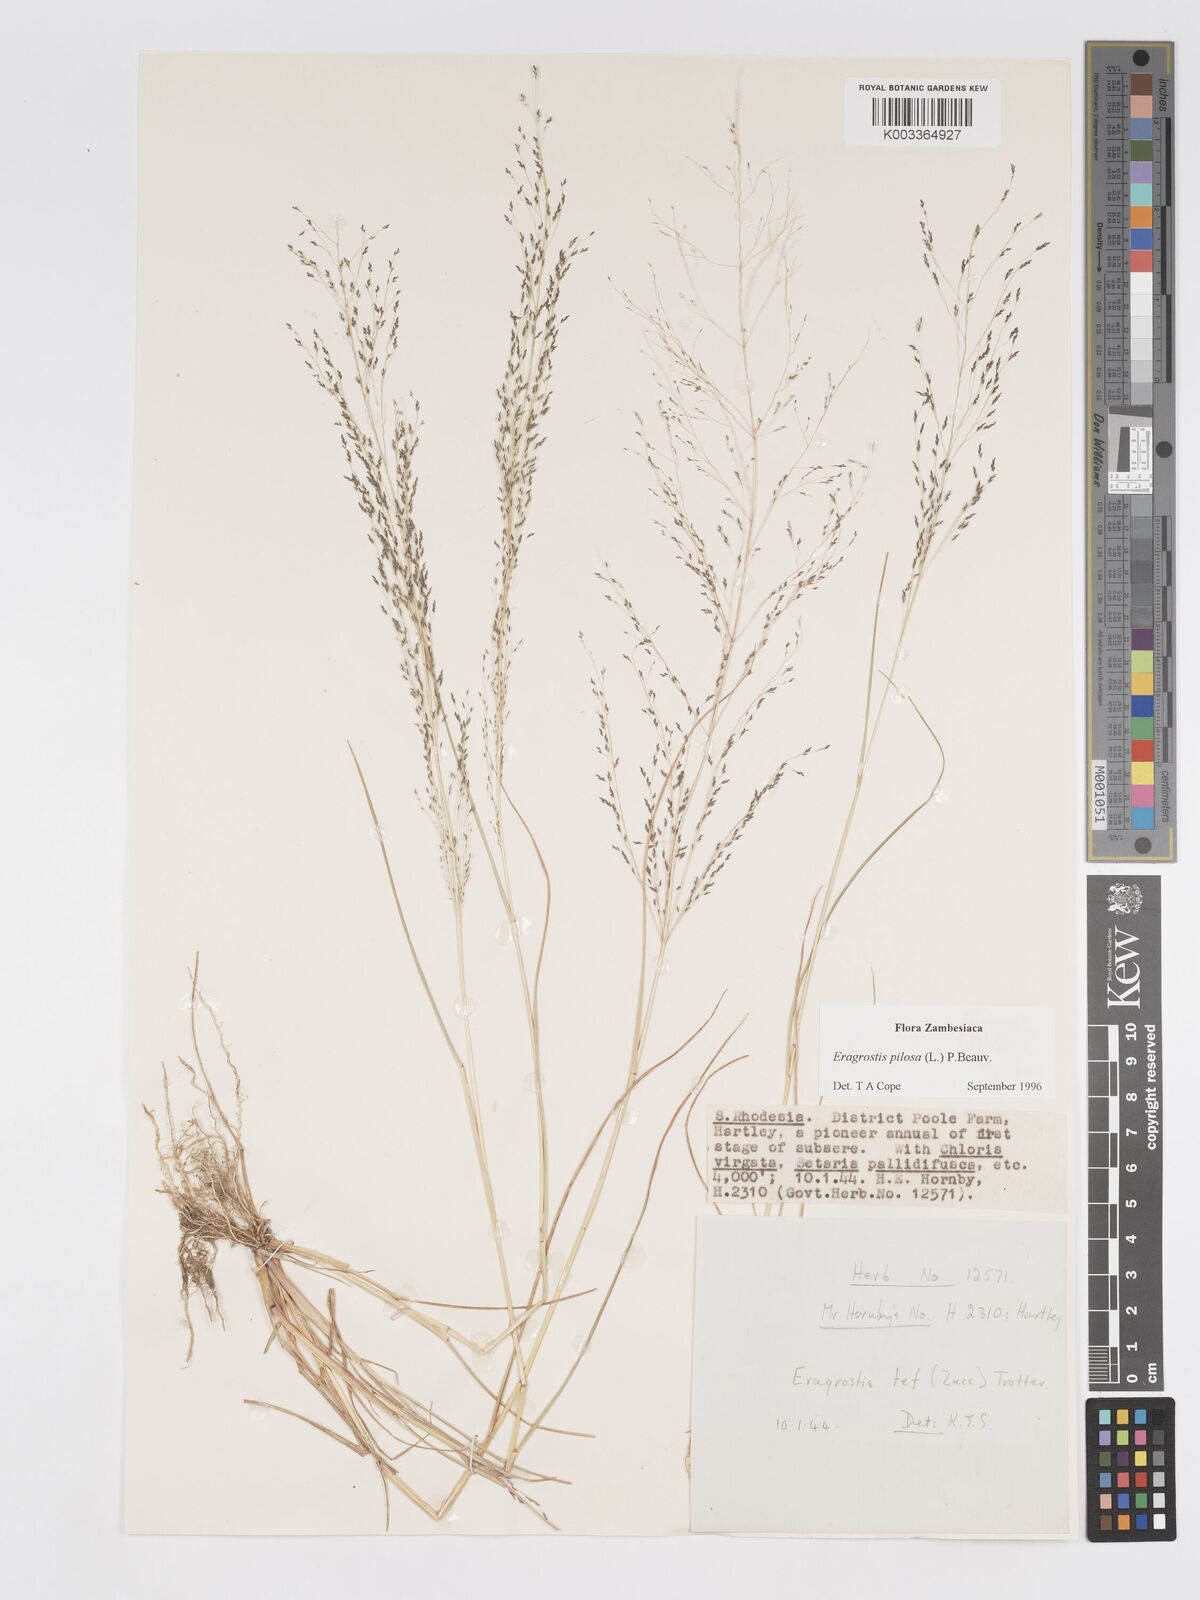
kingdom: Plantae
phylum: Tracheophyta
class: Liliopsida
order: Poales
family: Poaceae
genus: Eragrostis
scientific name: Eragrostis pilosa
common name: Indian lovegrass
